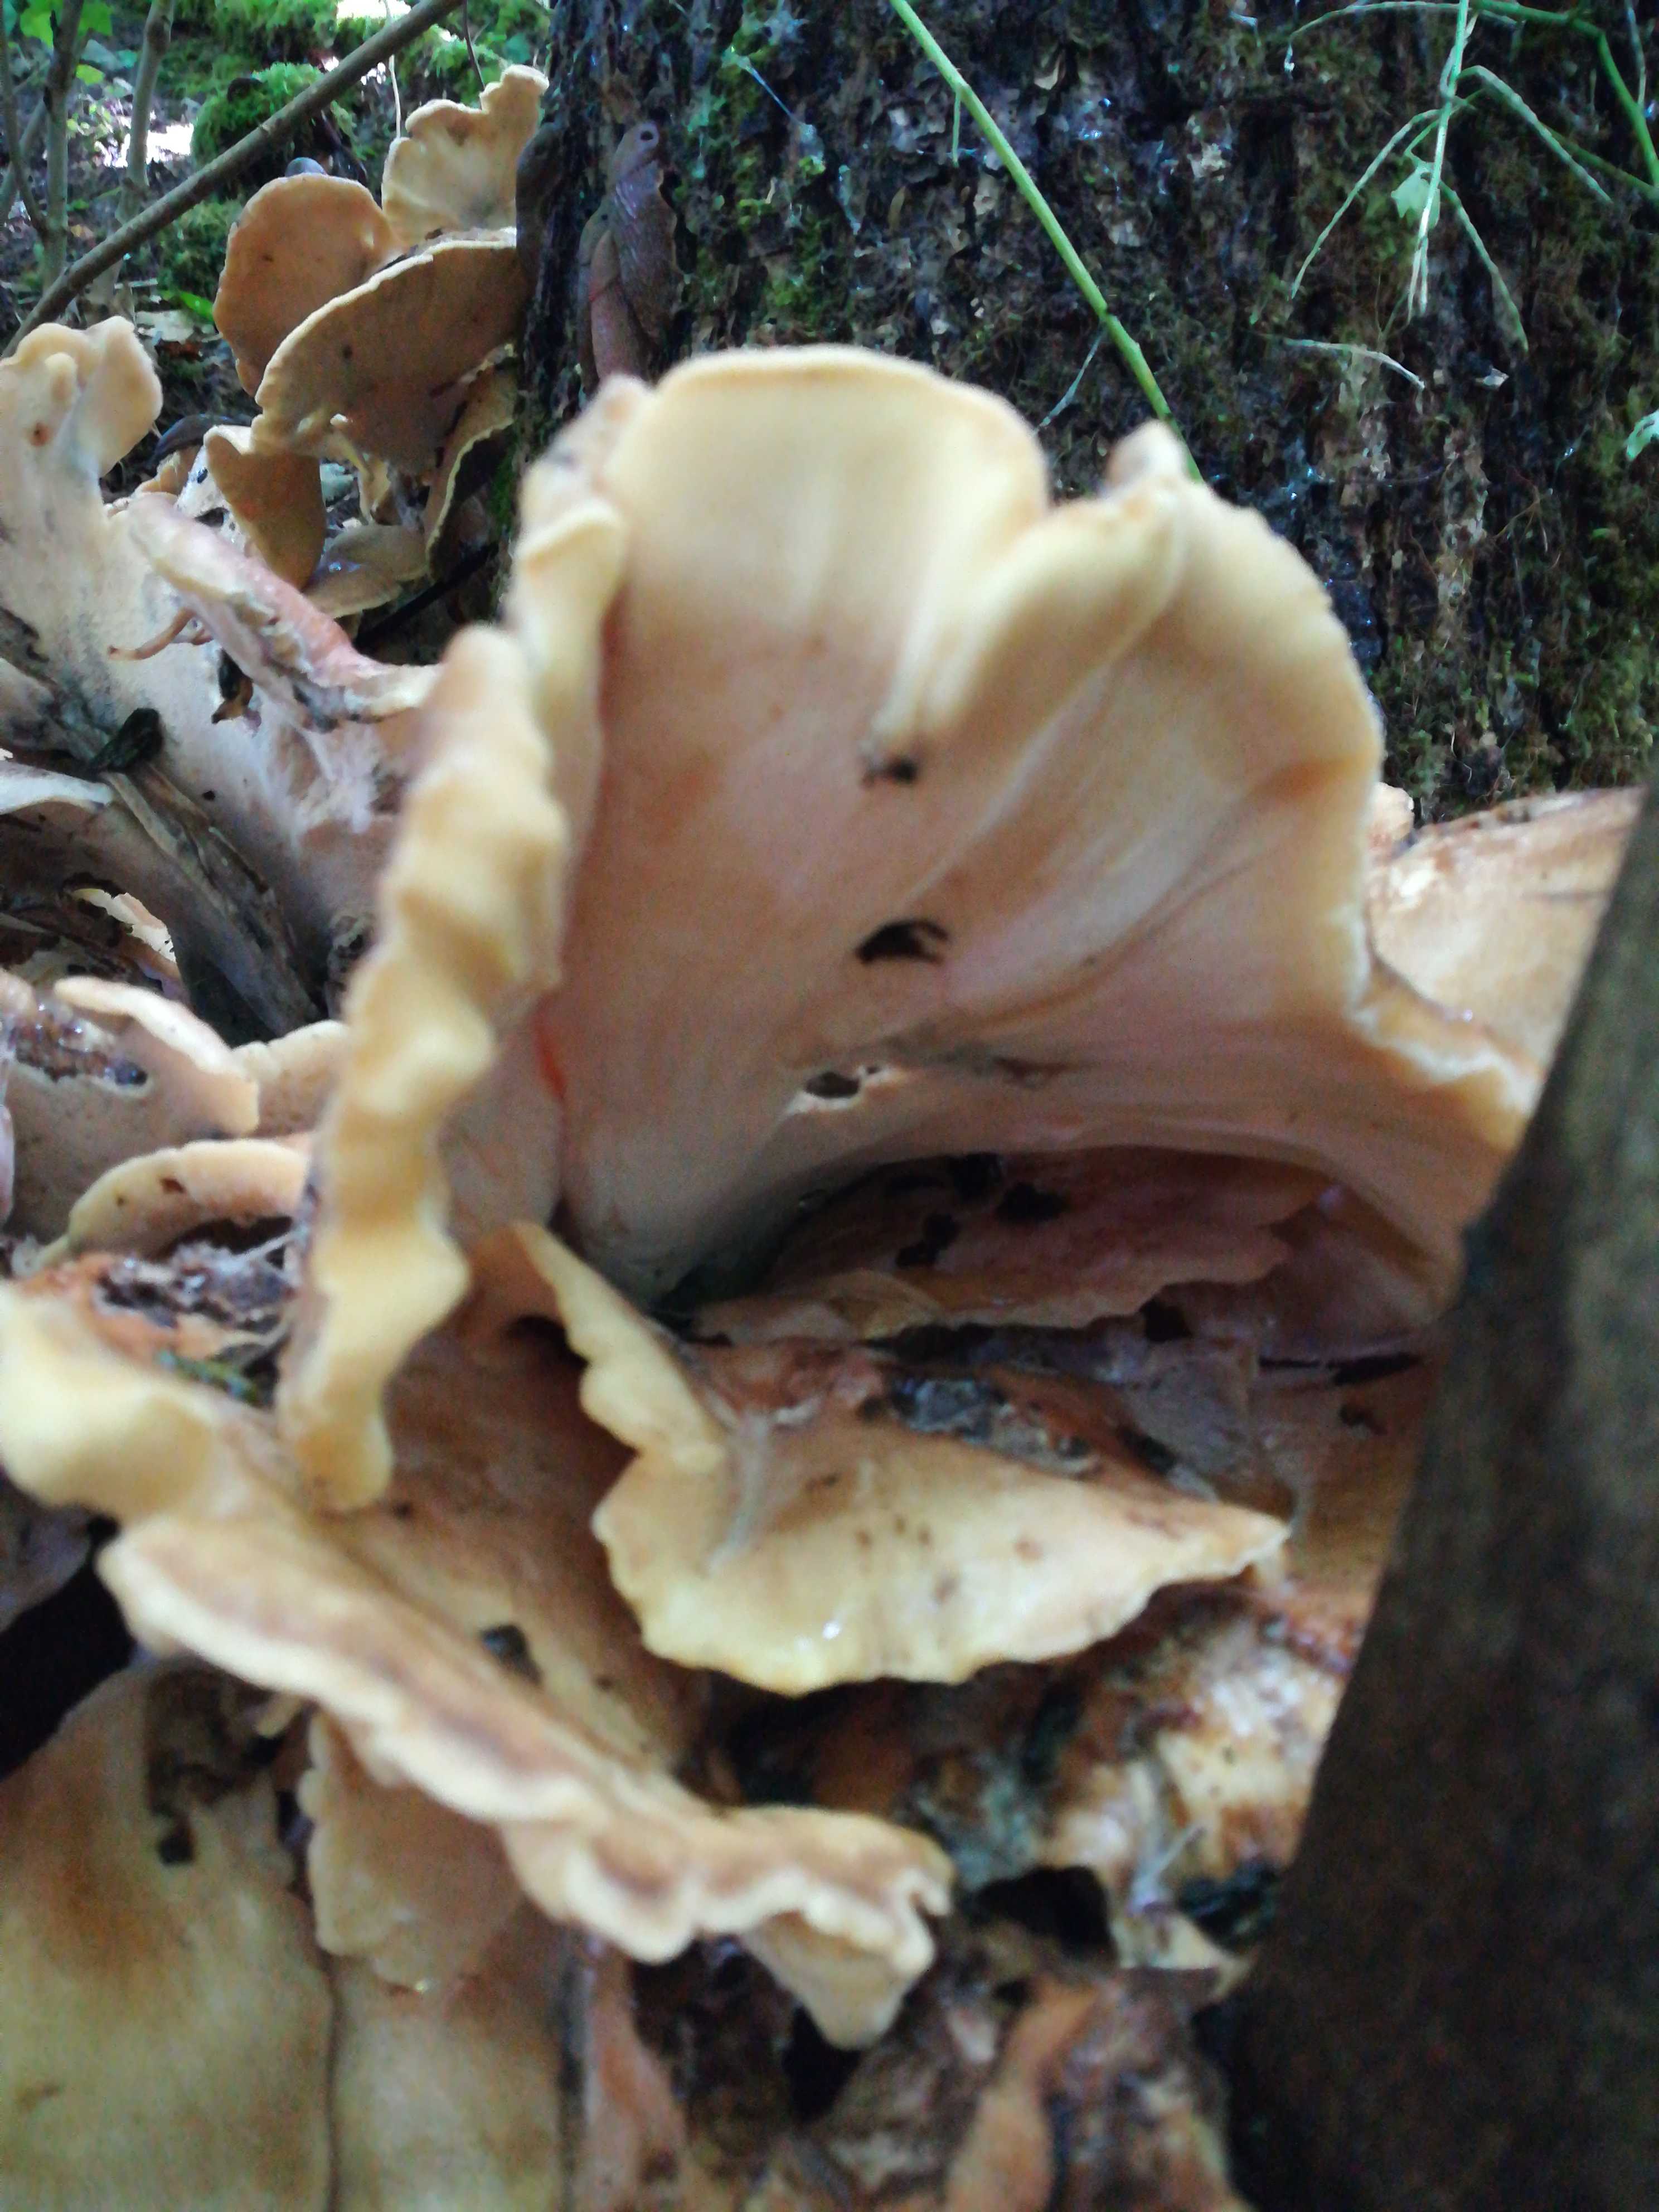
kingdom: Fungi
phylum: Basidiomycota
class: Agaricomycetes
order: Polyporales
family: Meripilaceae
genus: Meripilus
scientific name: Meripilus giganteus
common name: kæmpeporesvamp
